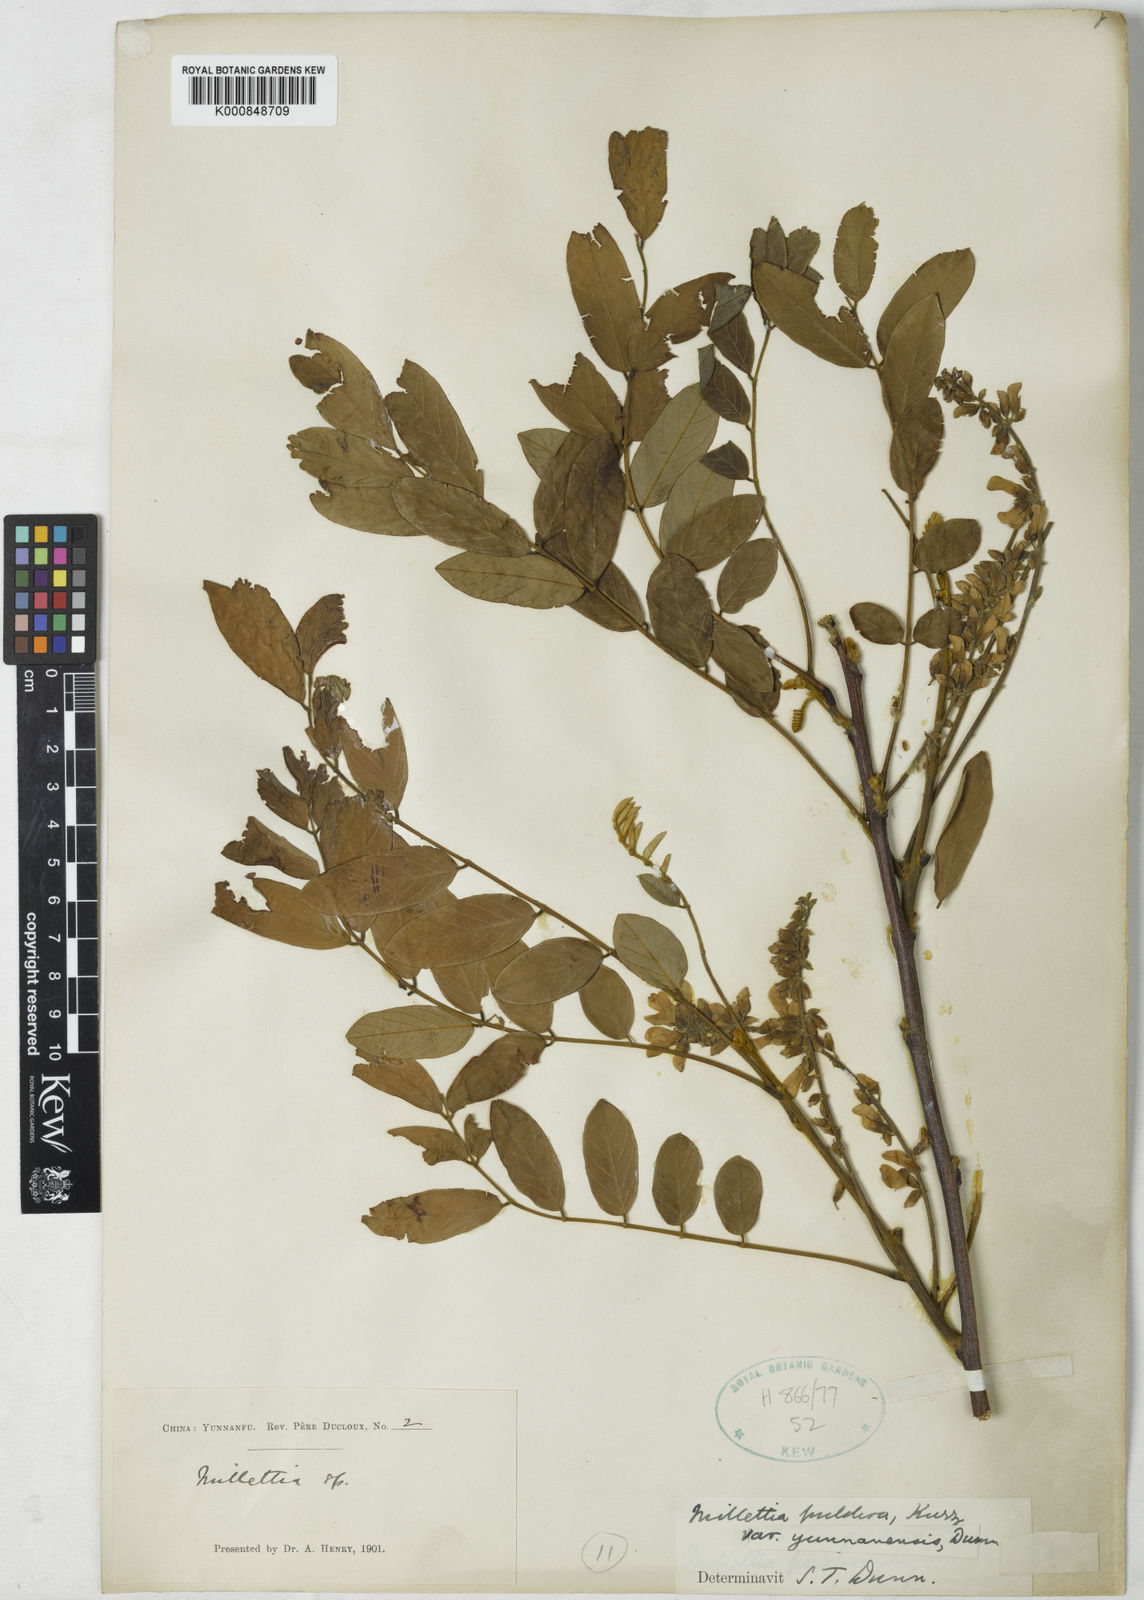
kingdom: Plantae
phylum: Tracheophyta
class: Magnoliopsida
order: Fabales
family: Fabaceae
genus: Millettia
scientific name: Millettia pulchra
